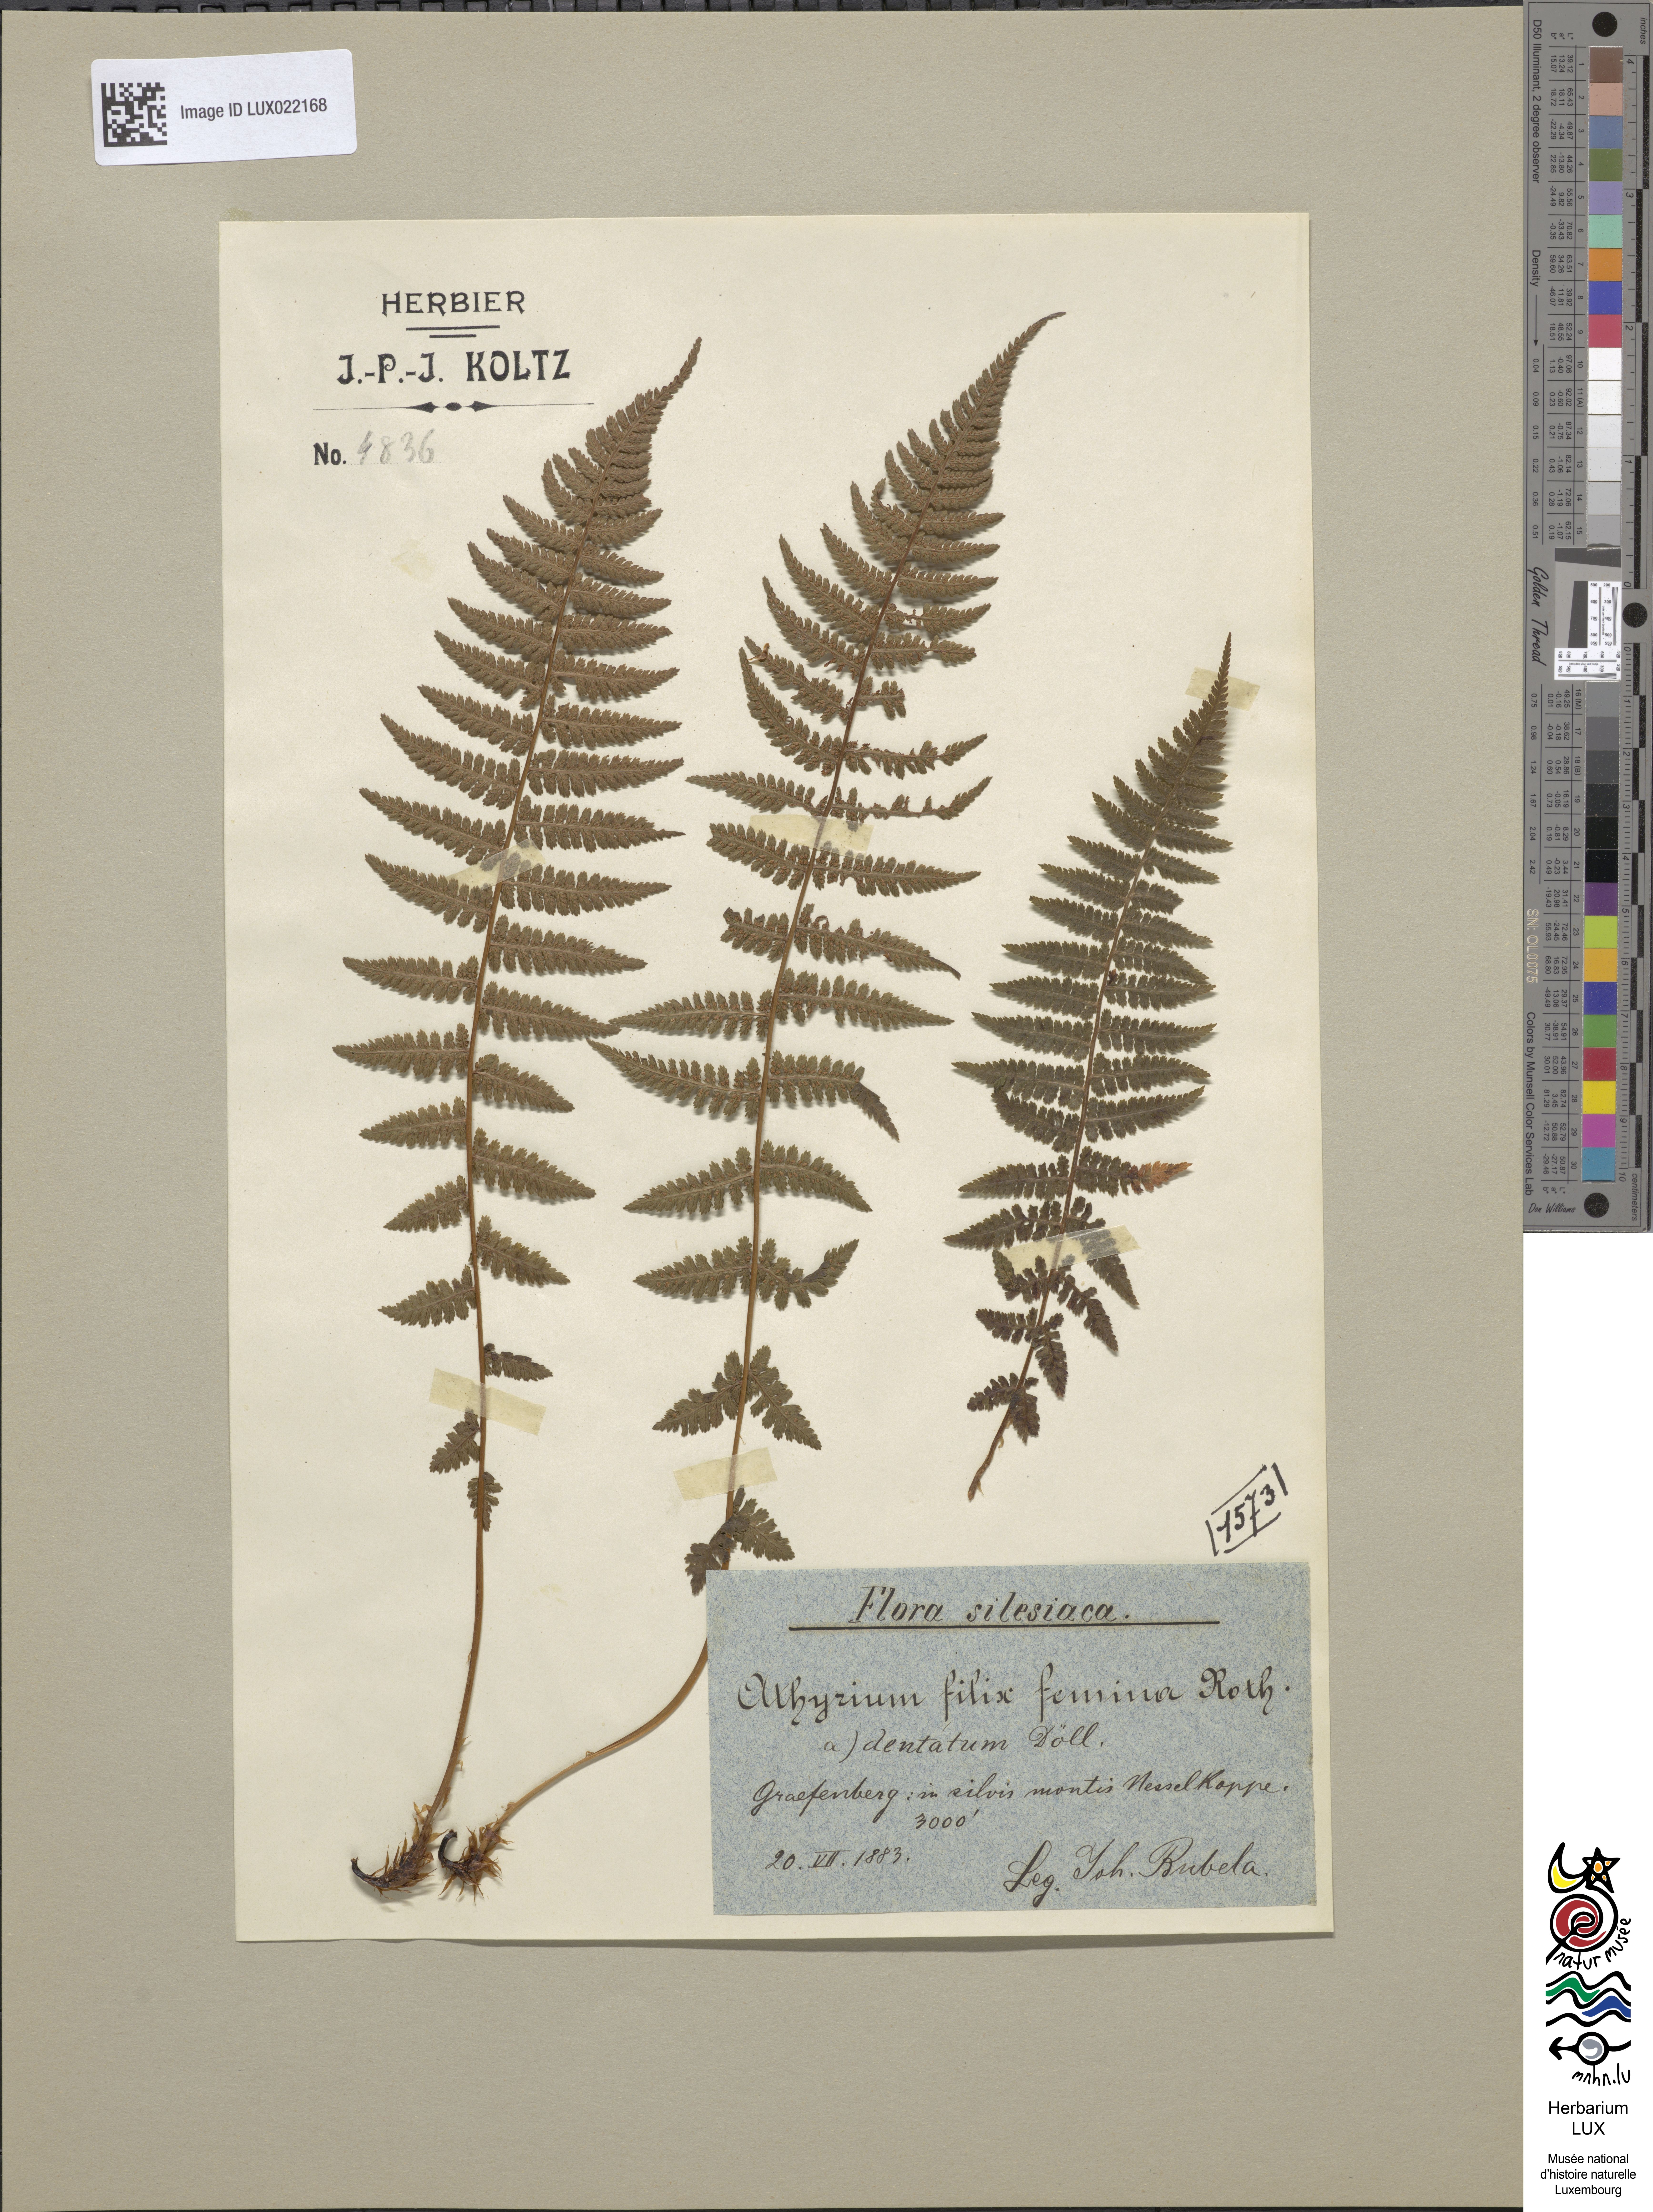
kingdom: Plantae
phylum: Tracheophyta
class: Polypodiopsida
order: Polypodiales
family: Athyriaceae
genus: Athyrium
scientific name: Athyrium filix-femina
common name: Lady fern
